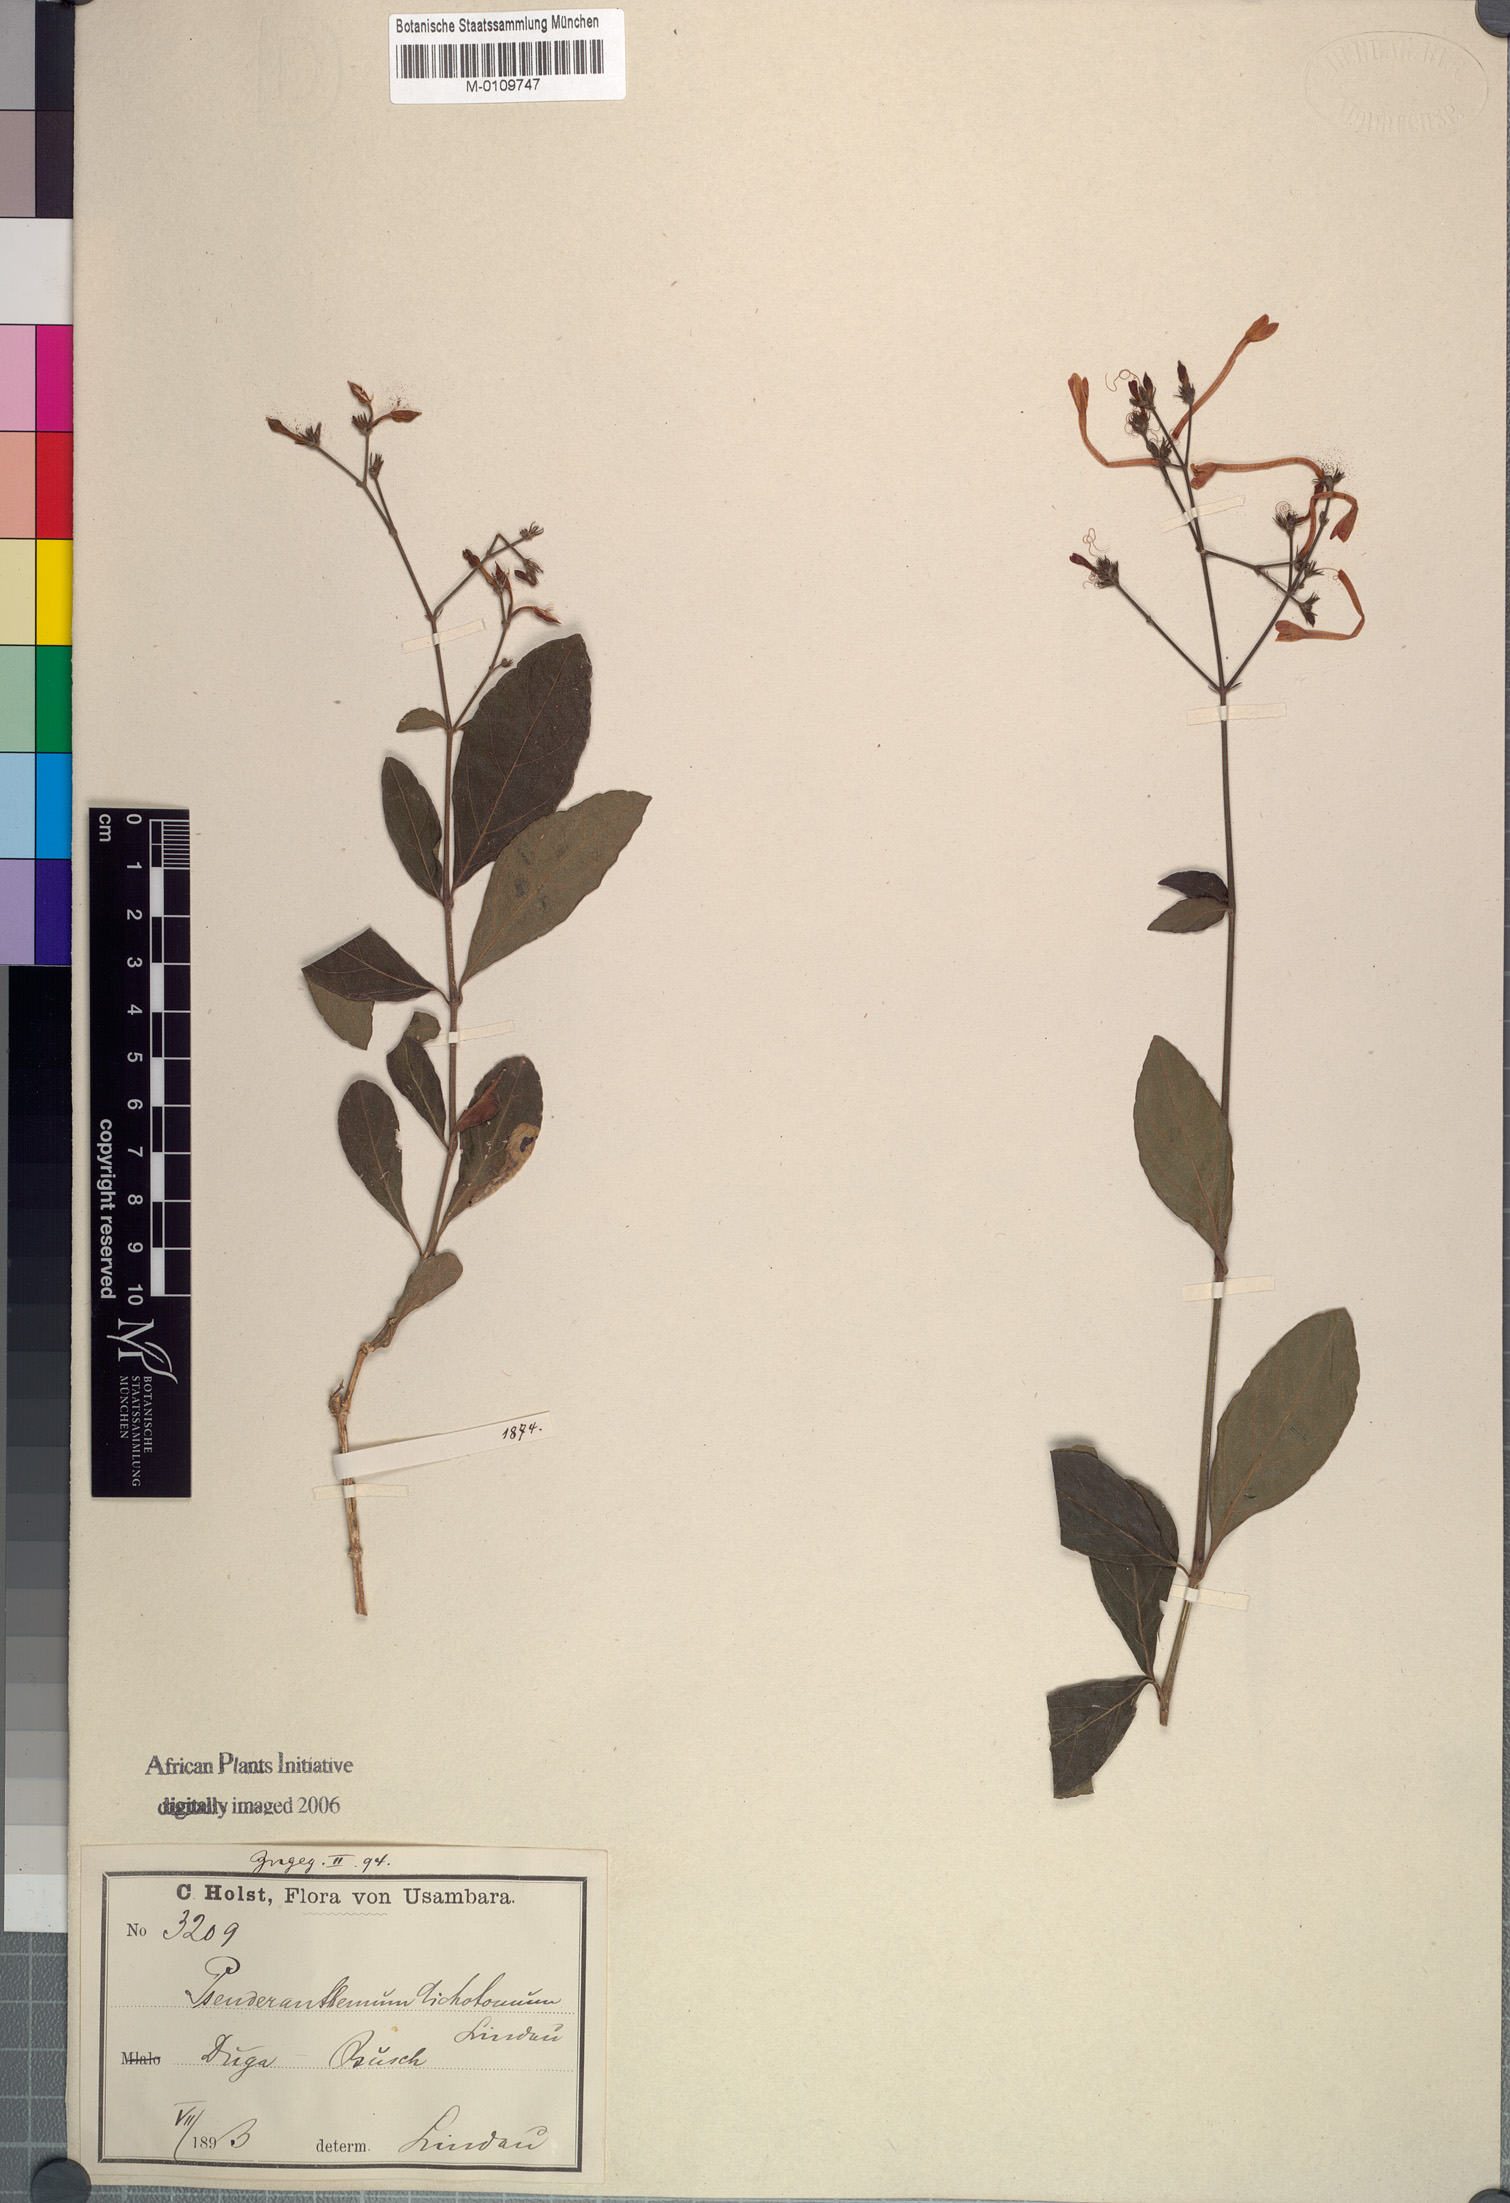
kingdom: Plantae
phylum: Tracheophyta
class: Magnoliopsida
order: Lamiales
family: Acanthaceae
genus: Rhinacanthus
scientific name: Rhinacanthus dichotomus
